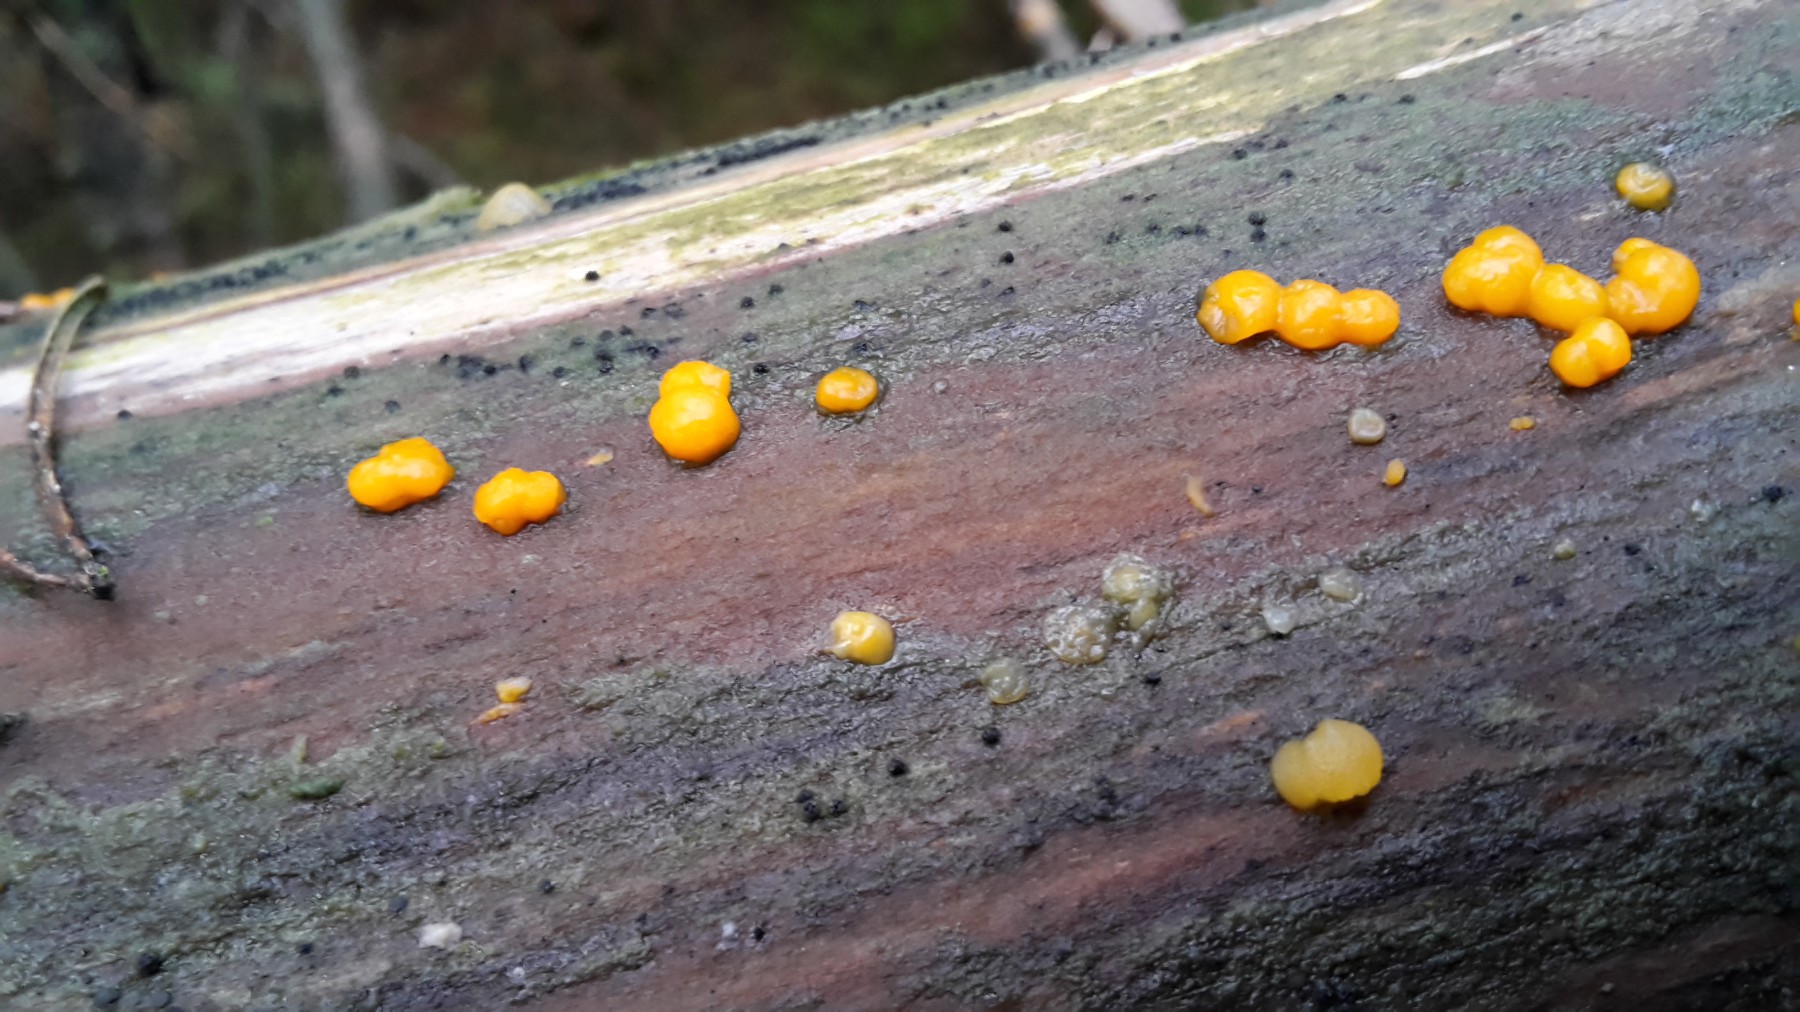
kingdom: Fungi
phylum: Basidiomycota
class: Dacrymycetes
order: Dacrymycetales
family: Dacrymycetaceae
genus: Dacrymyces
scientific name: Dacrymyces stillatus
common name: almindelig tåresvamp
